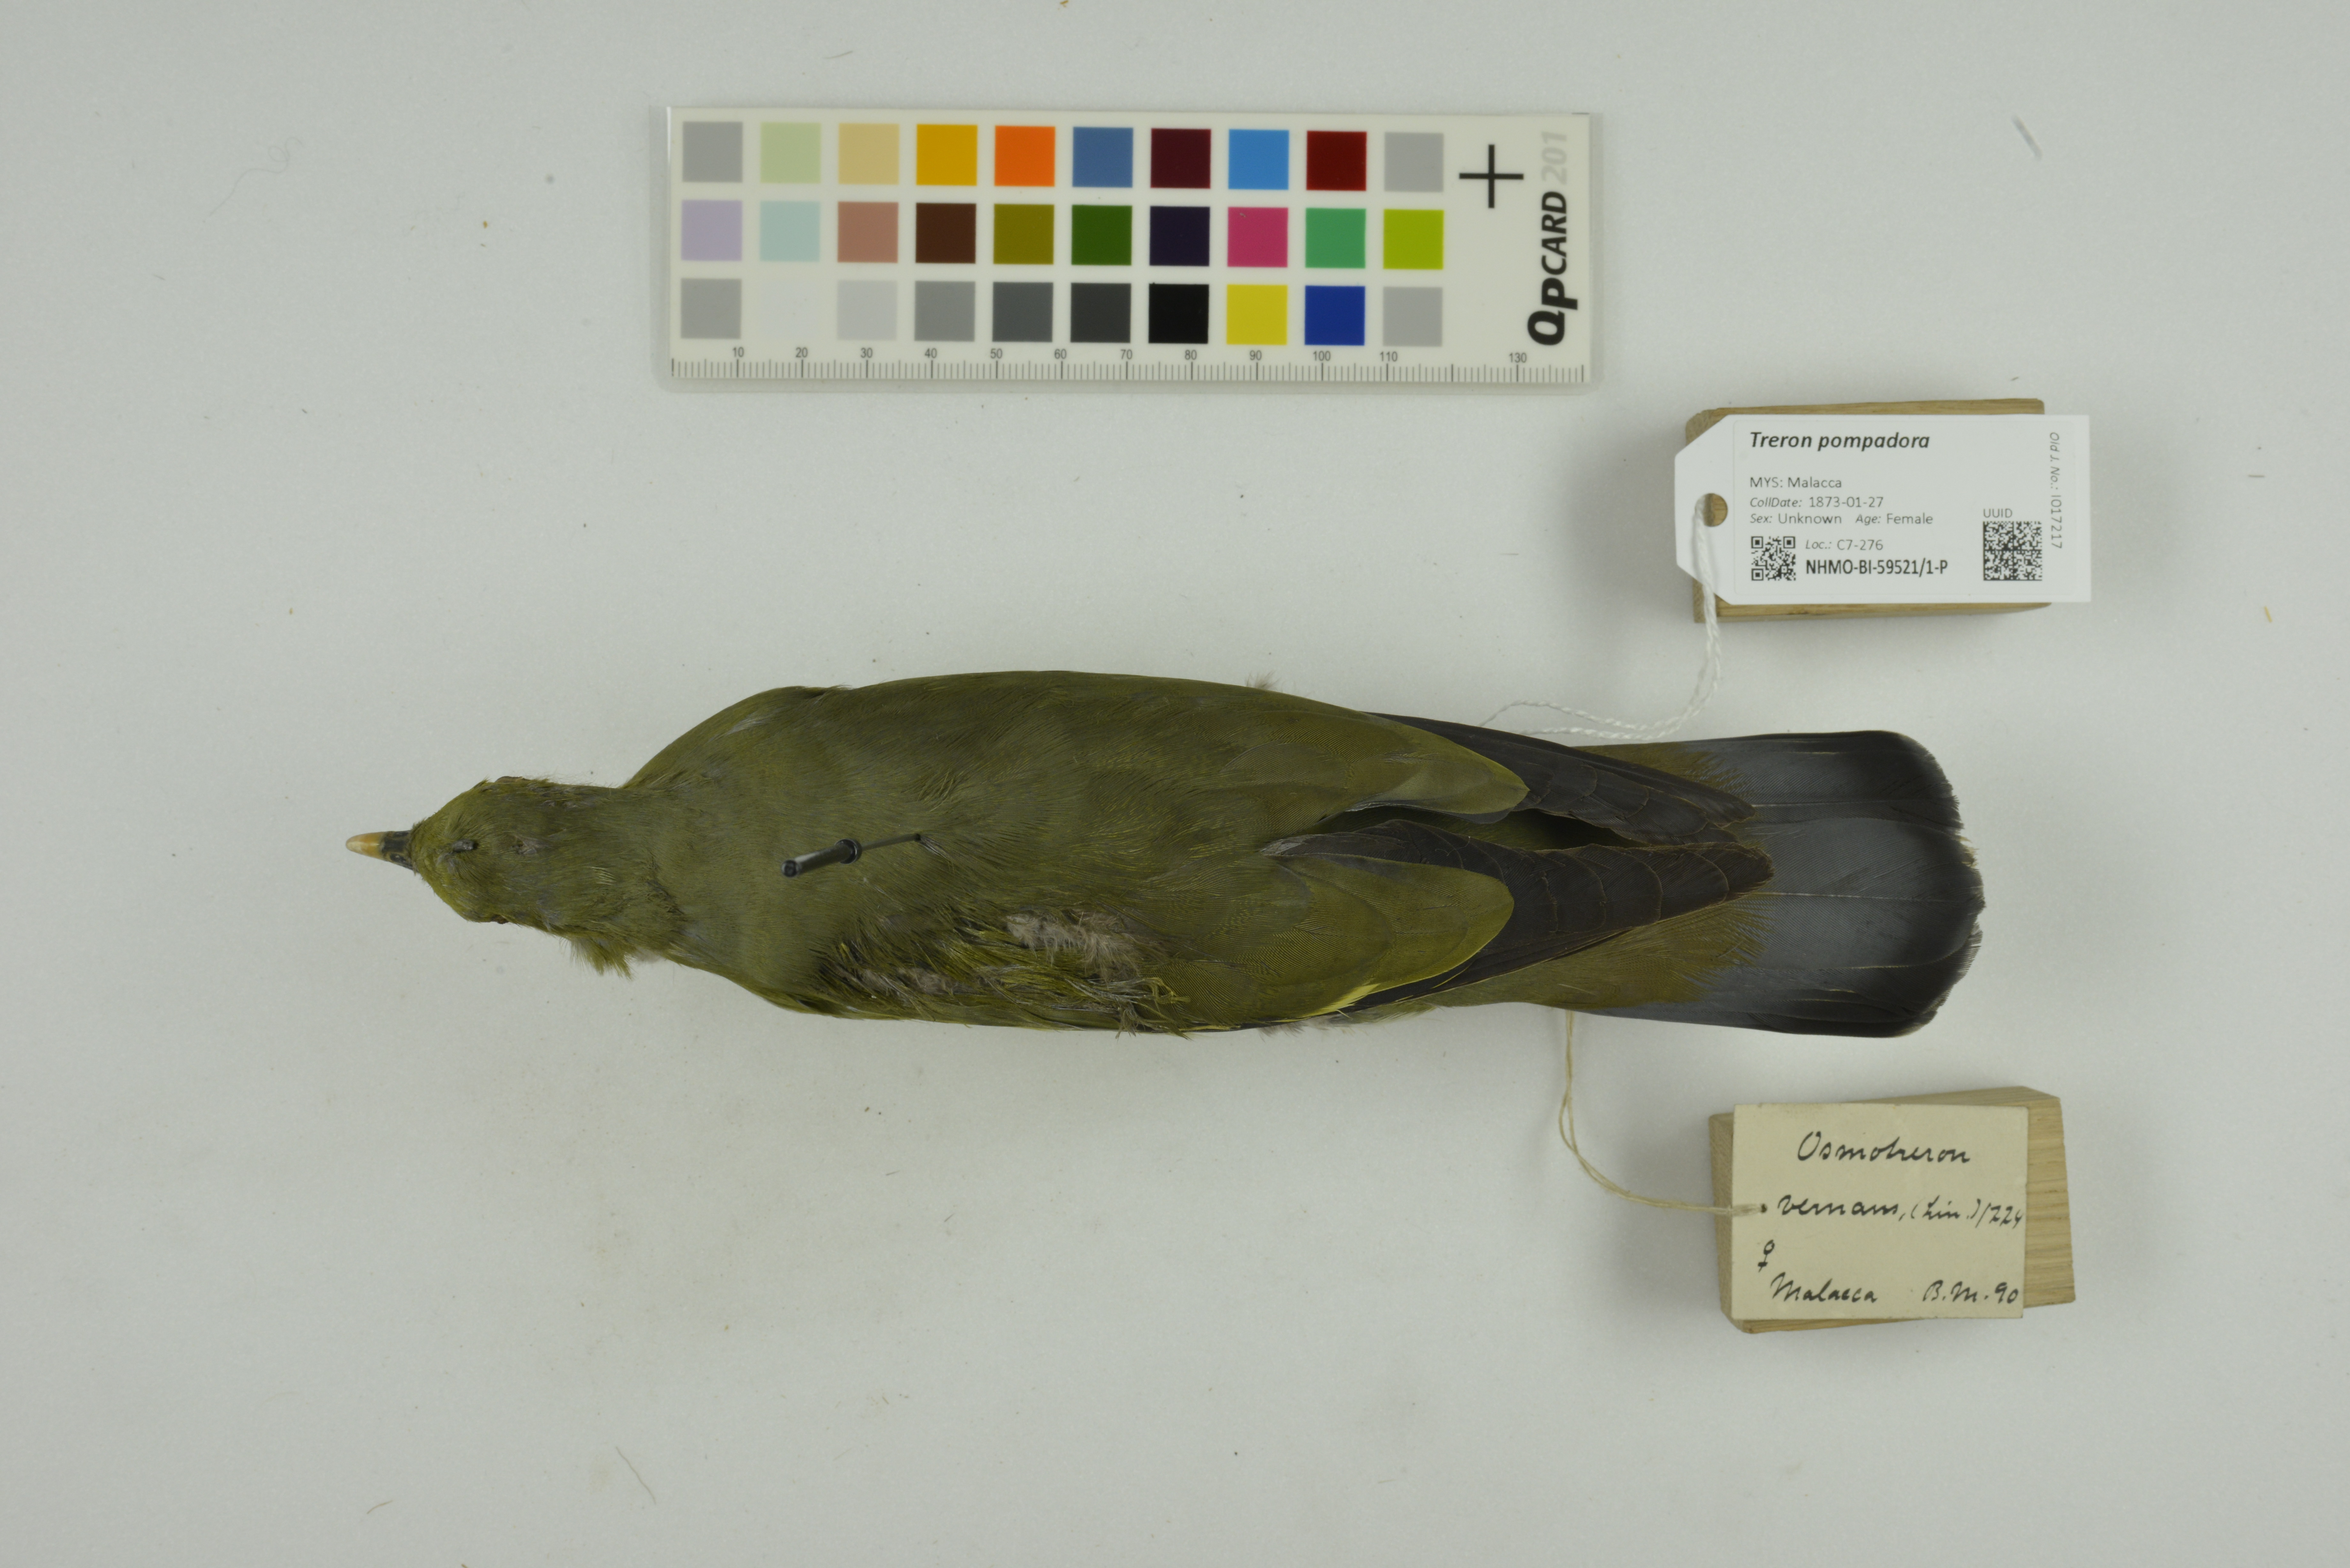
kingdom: Animalia
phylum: Chordata
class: Aves
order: Columbiformes
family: Columbidae
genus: Treron
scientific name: Treron pompadora
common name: Pompadour green pigeon
